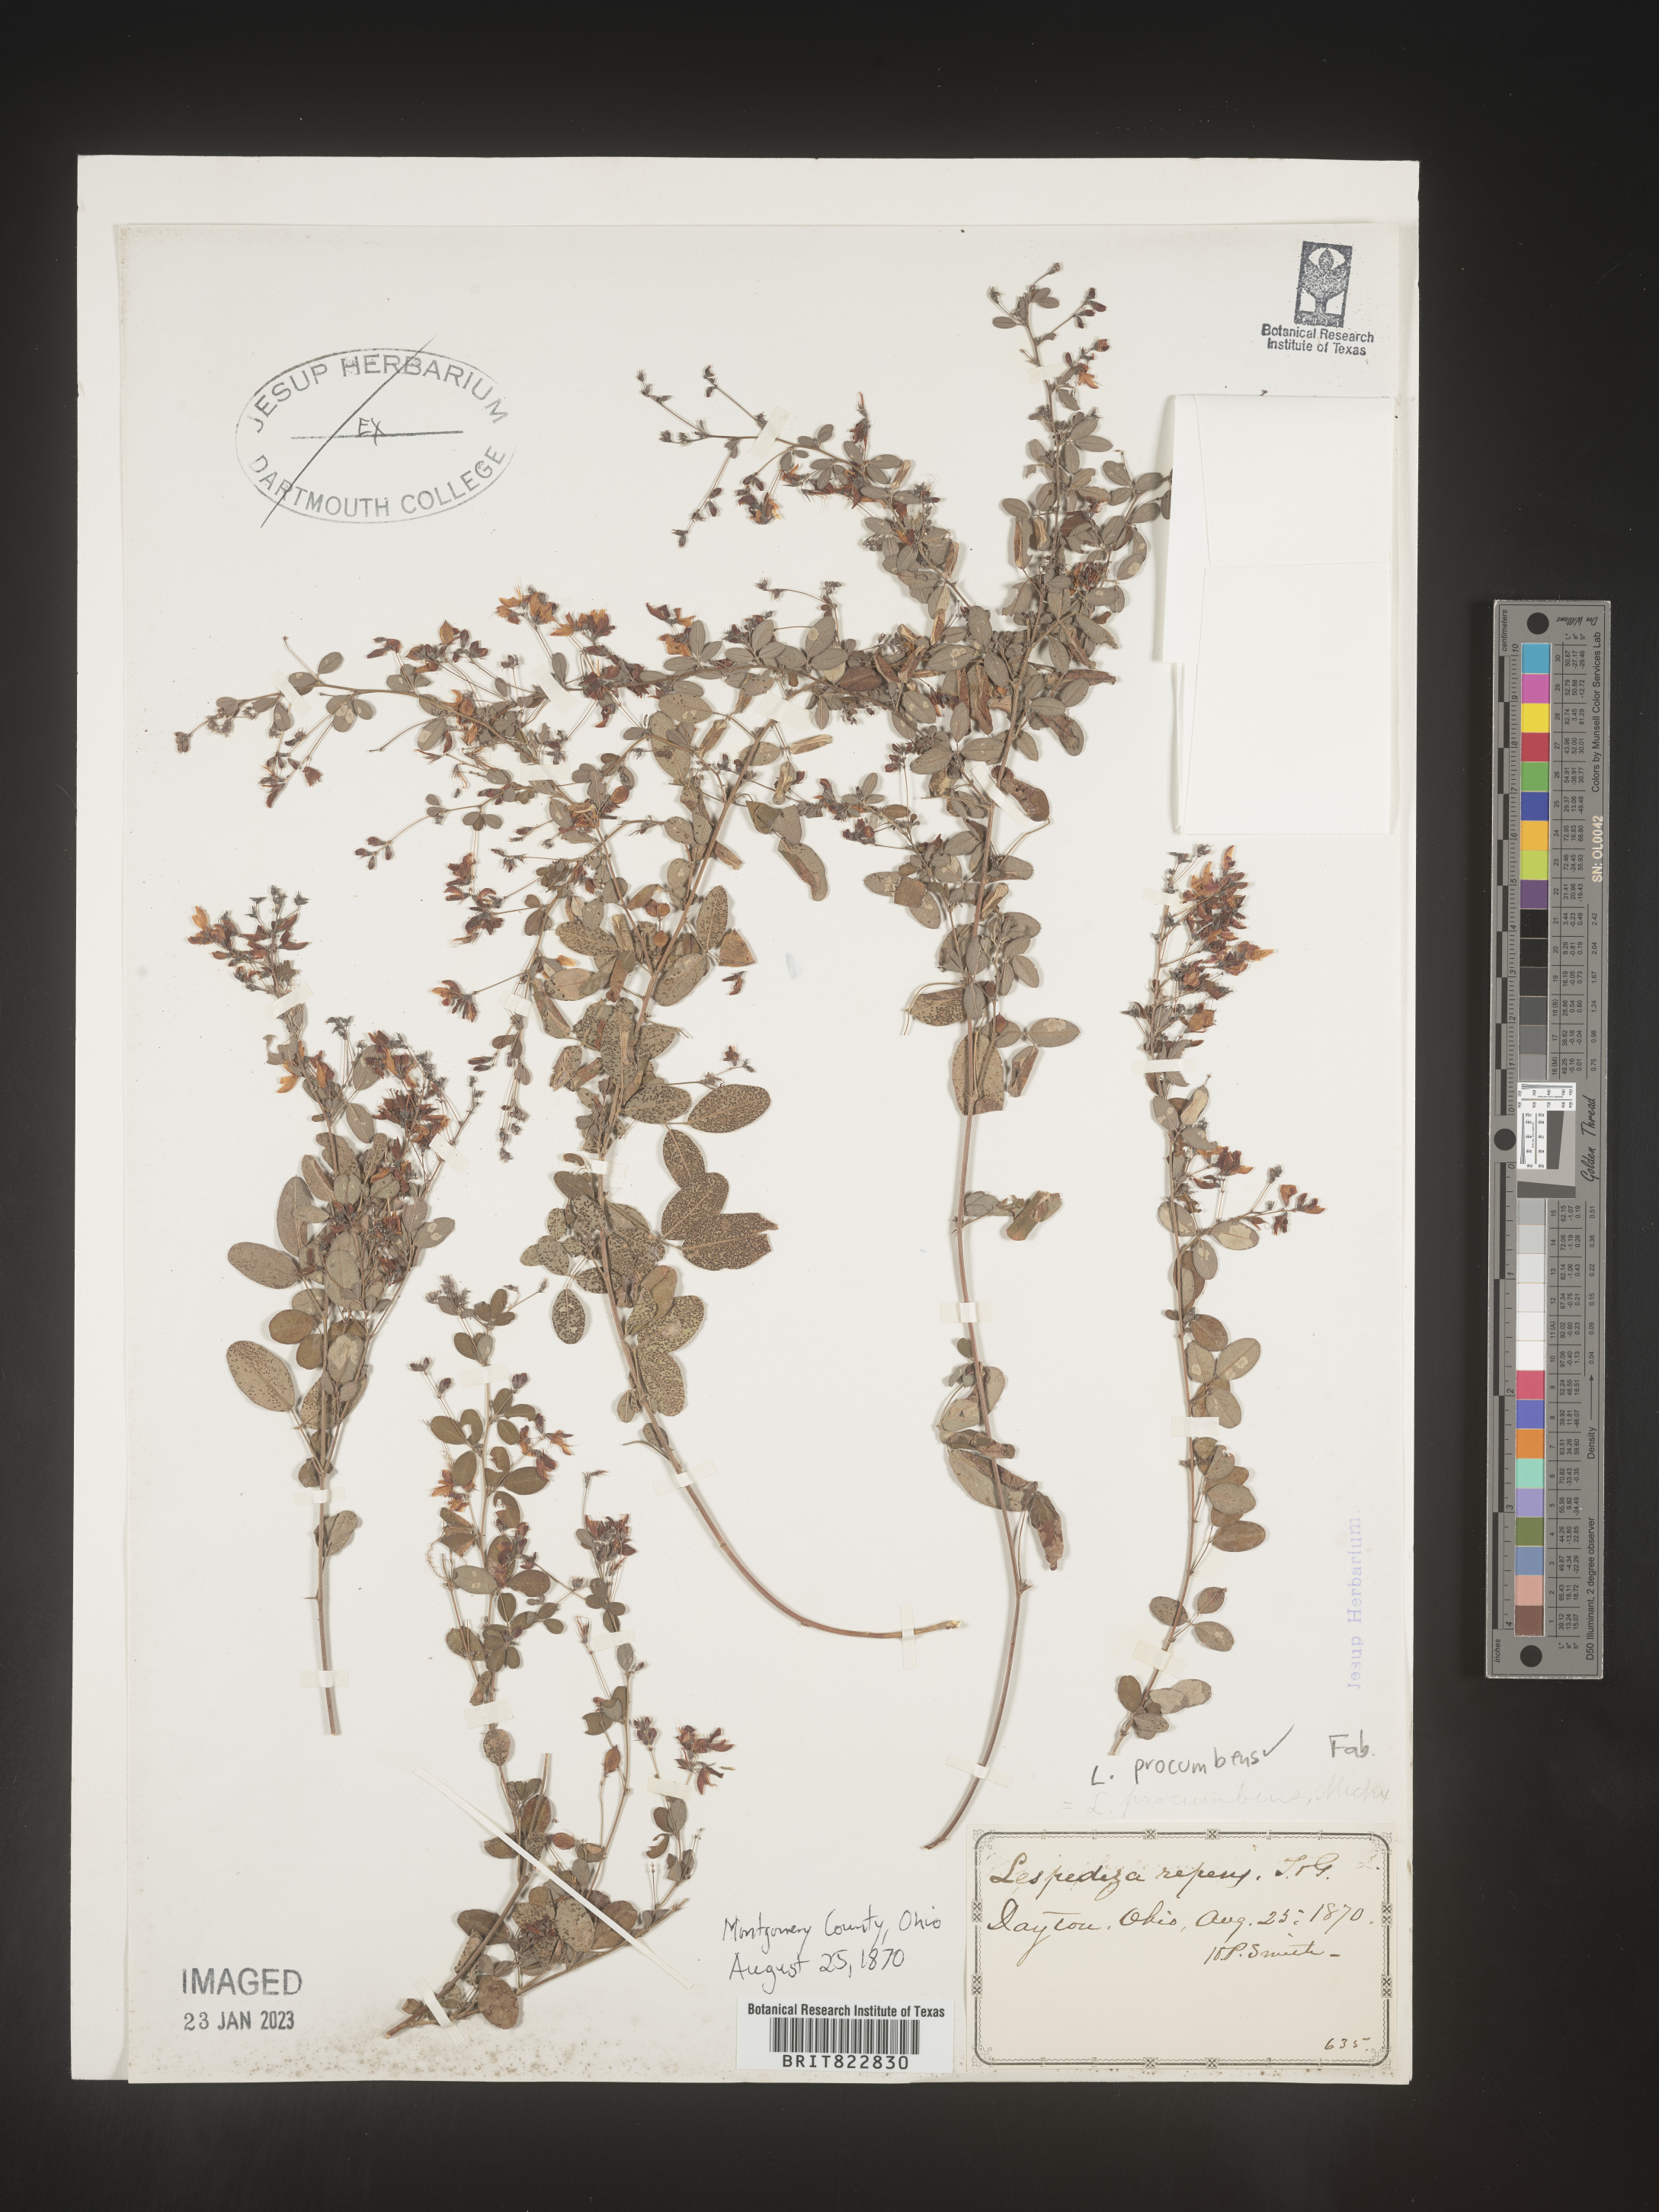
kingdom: Plantae
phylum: Tracheophyta
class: Magnoliopsida
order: Fabales
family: Fabaceae
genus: Lespedeza
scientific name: Lespedeza procumbens
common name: Downy trailing bush-clover
